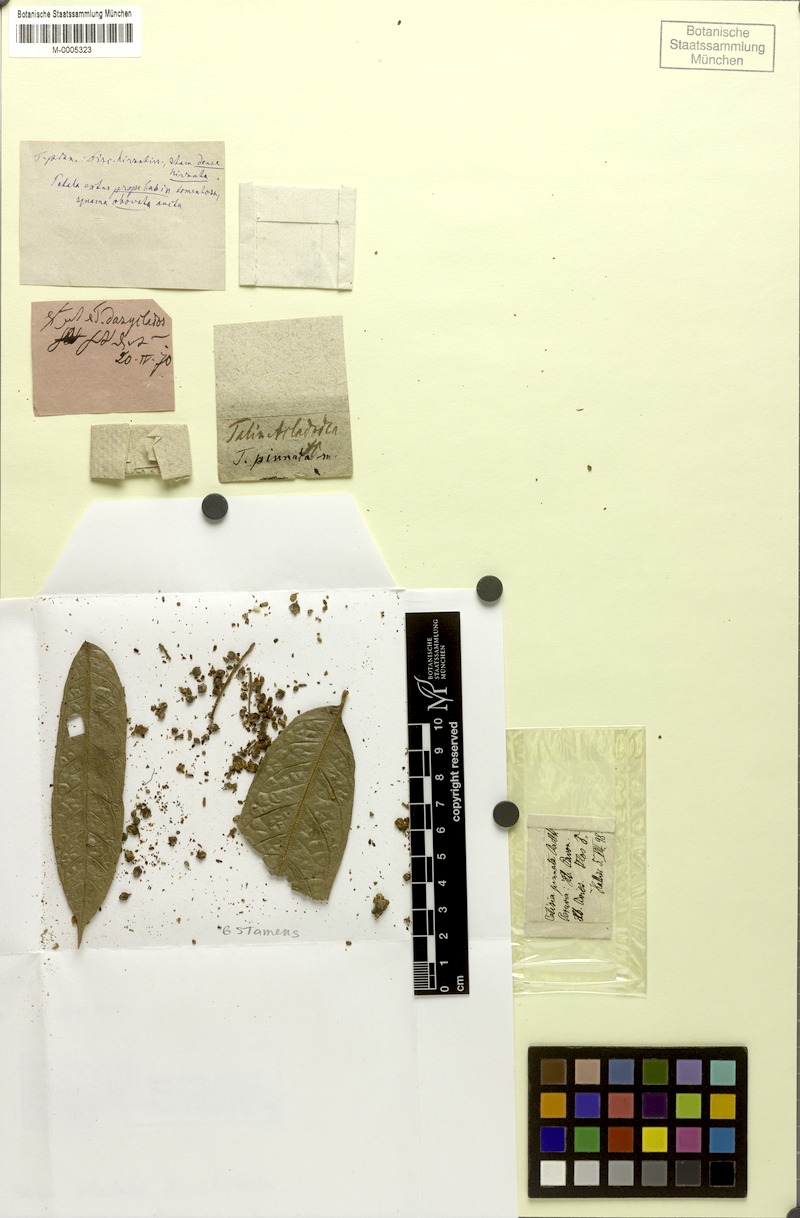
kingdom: Plantae
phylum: Tracheophyta
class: Magnoliopsida
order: Sapindales
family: Sapindaceae
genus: Talisia
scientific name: Talisia pinnata
